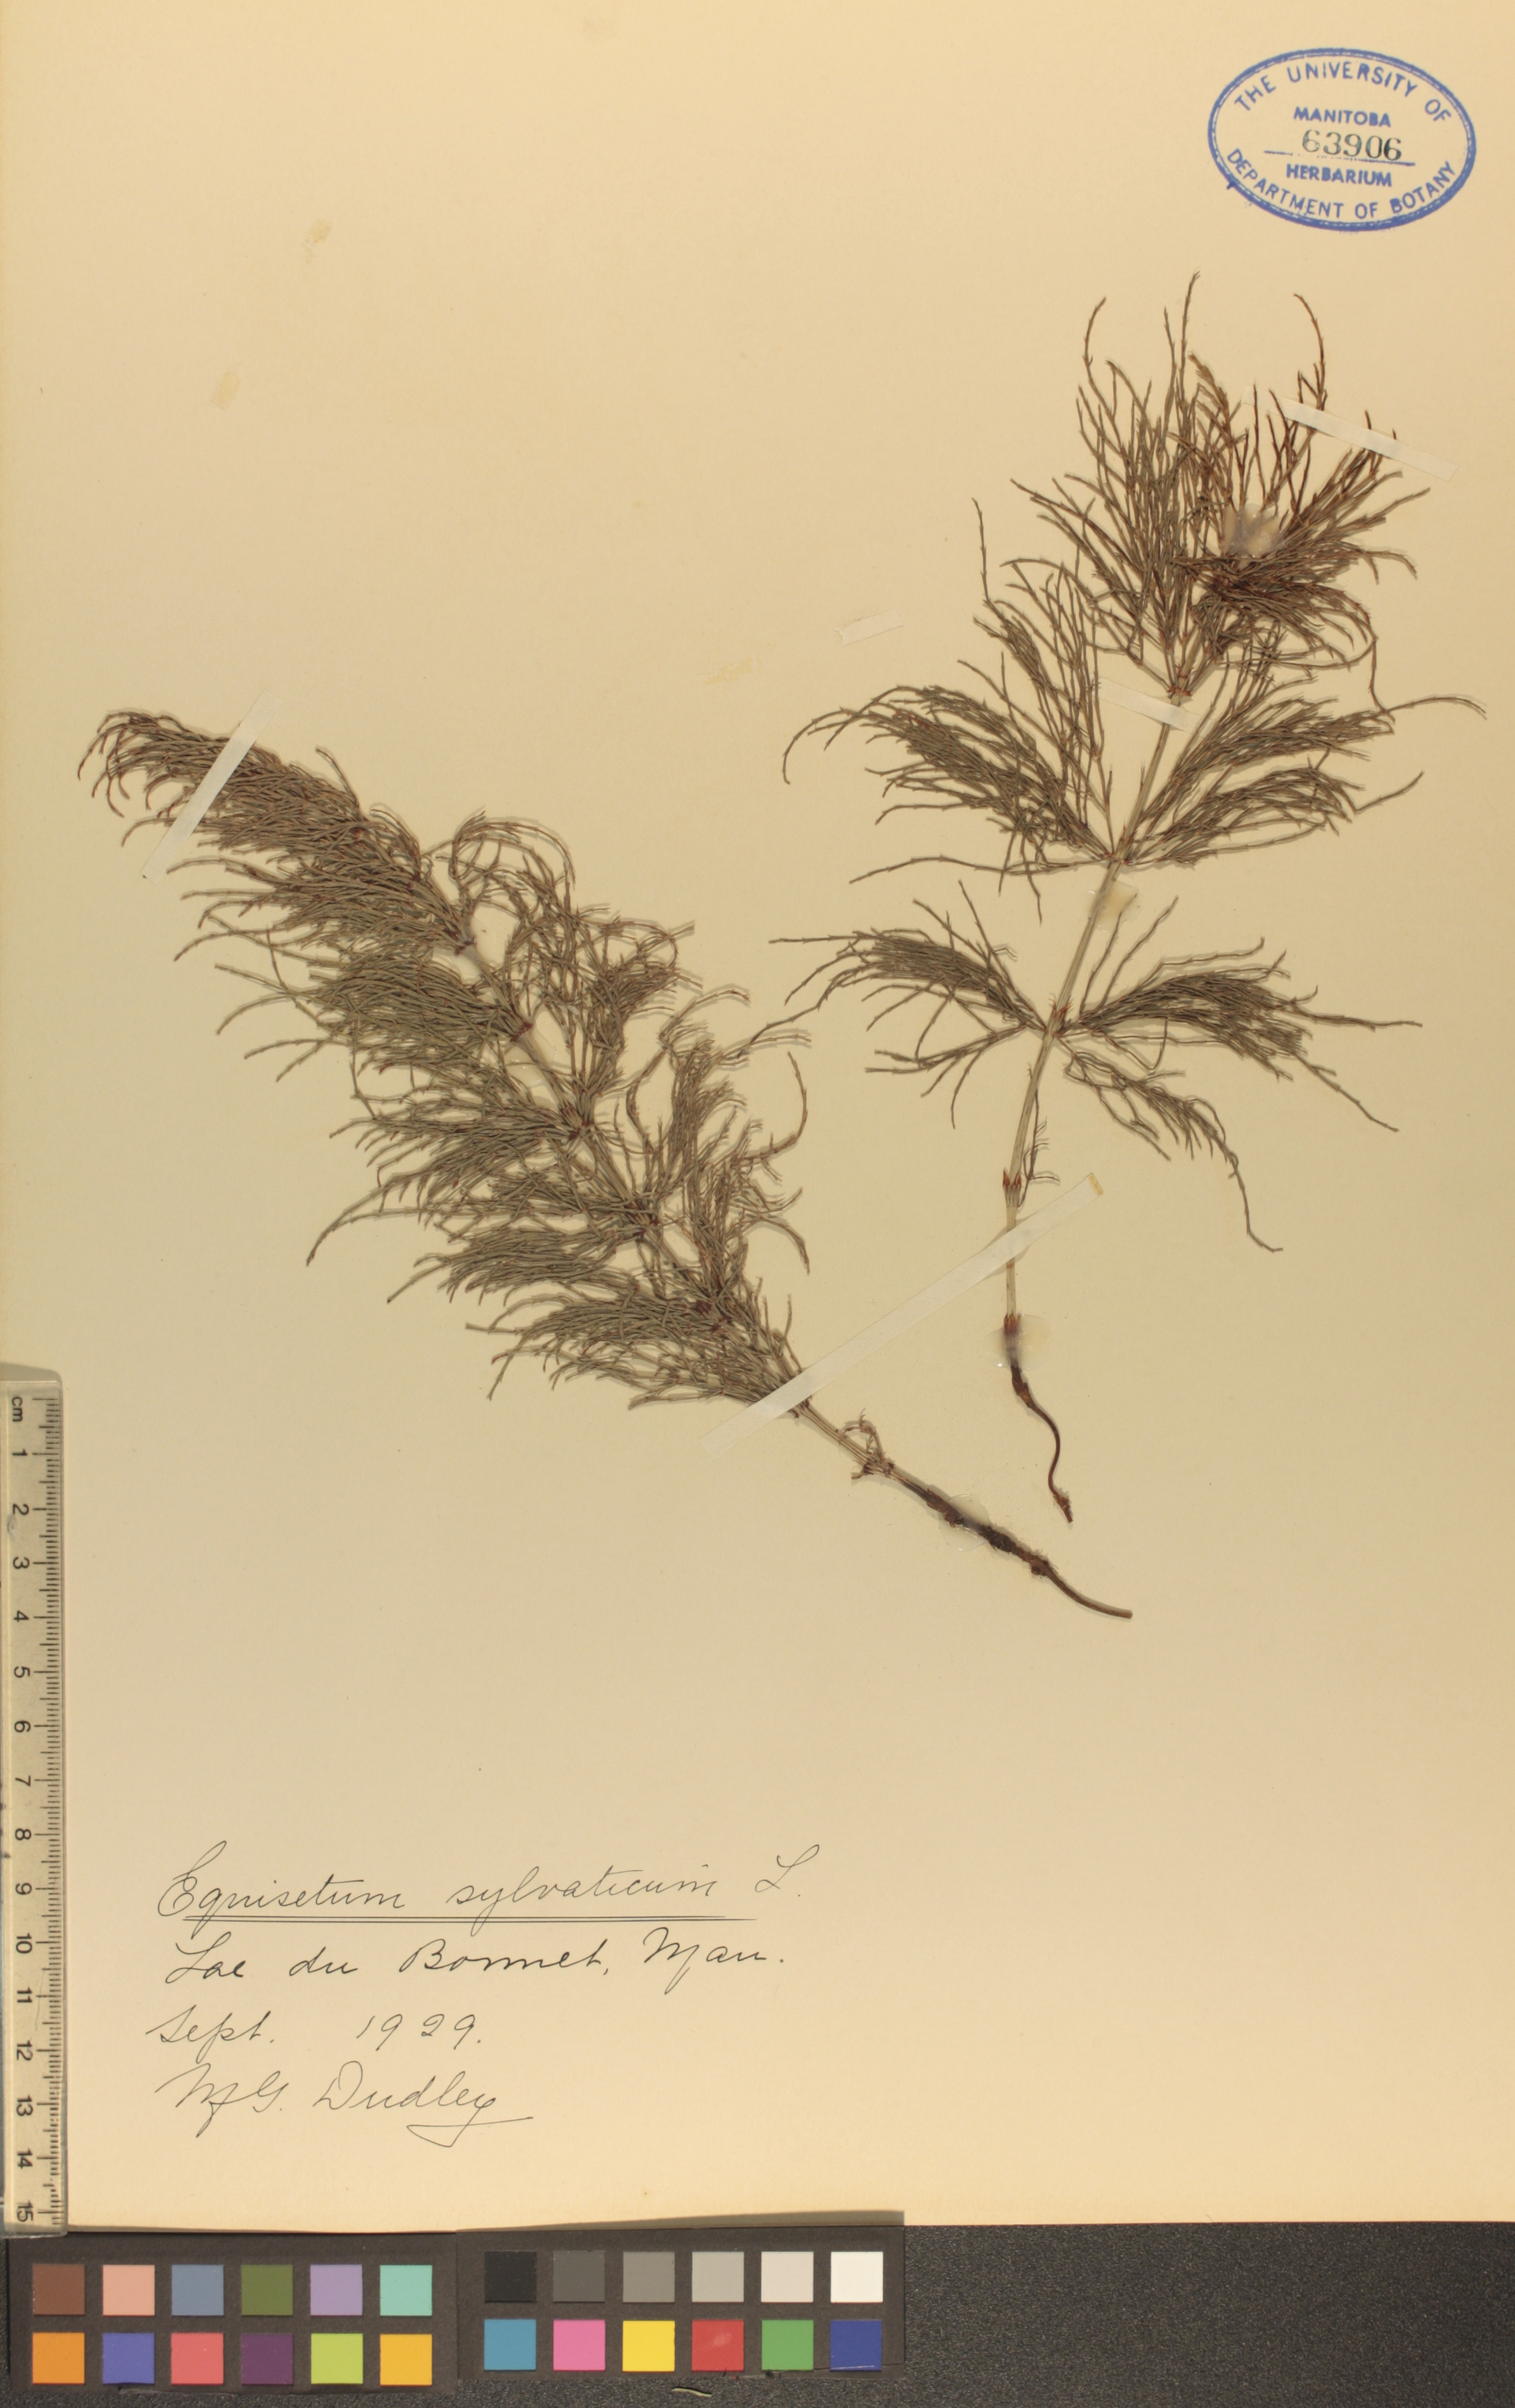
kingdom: Plantae
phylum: Tracheophyta
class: Polypodiopsida
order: Equisetales
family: Equisetaceae
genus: Equisetum
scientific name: Equisetum sylvaticum
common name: Wood horsetail
